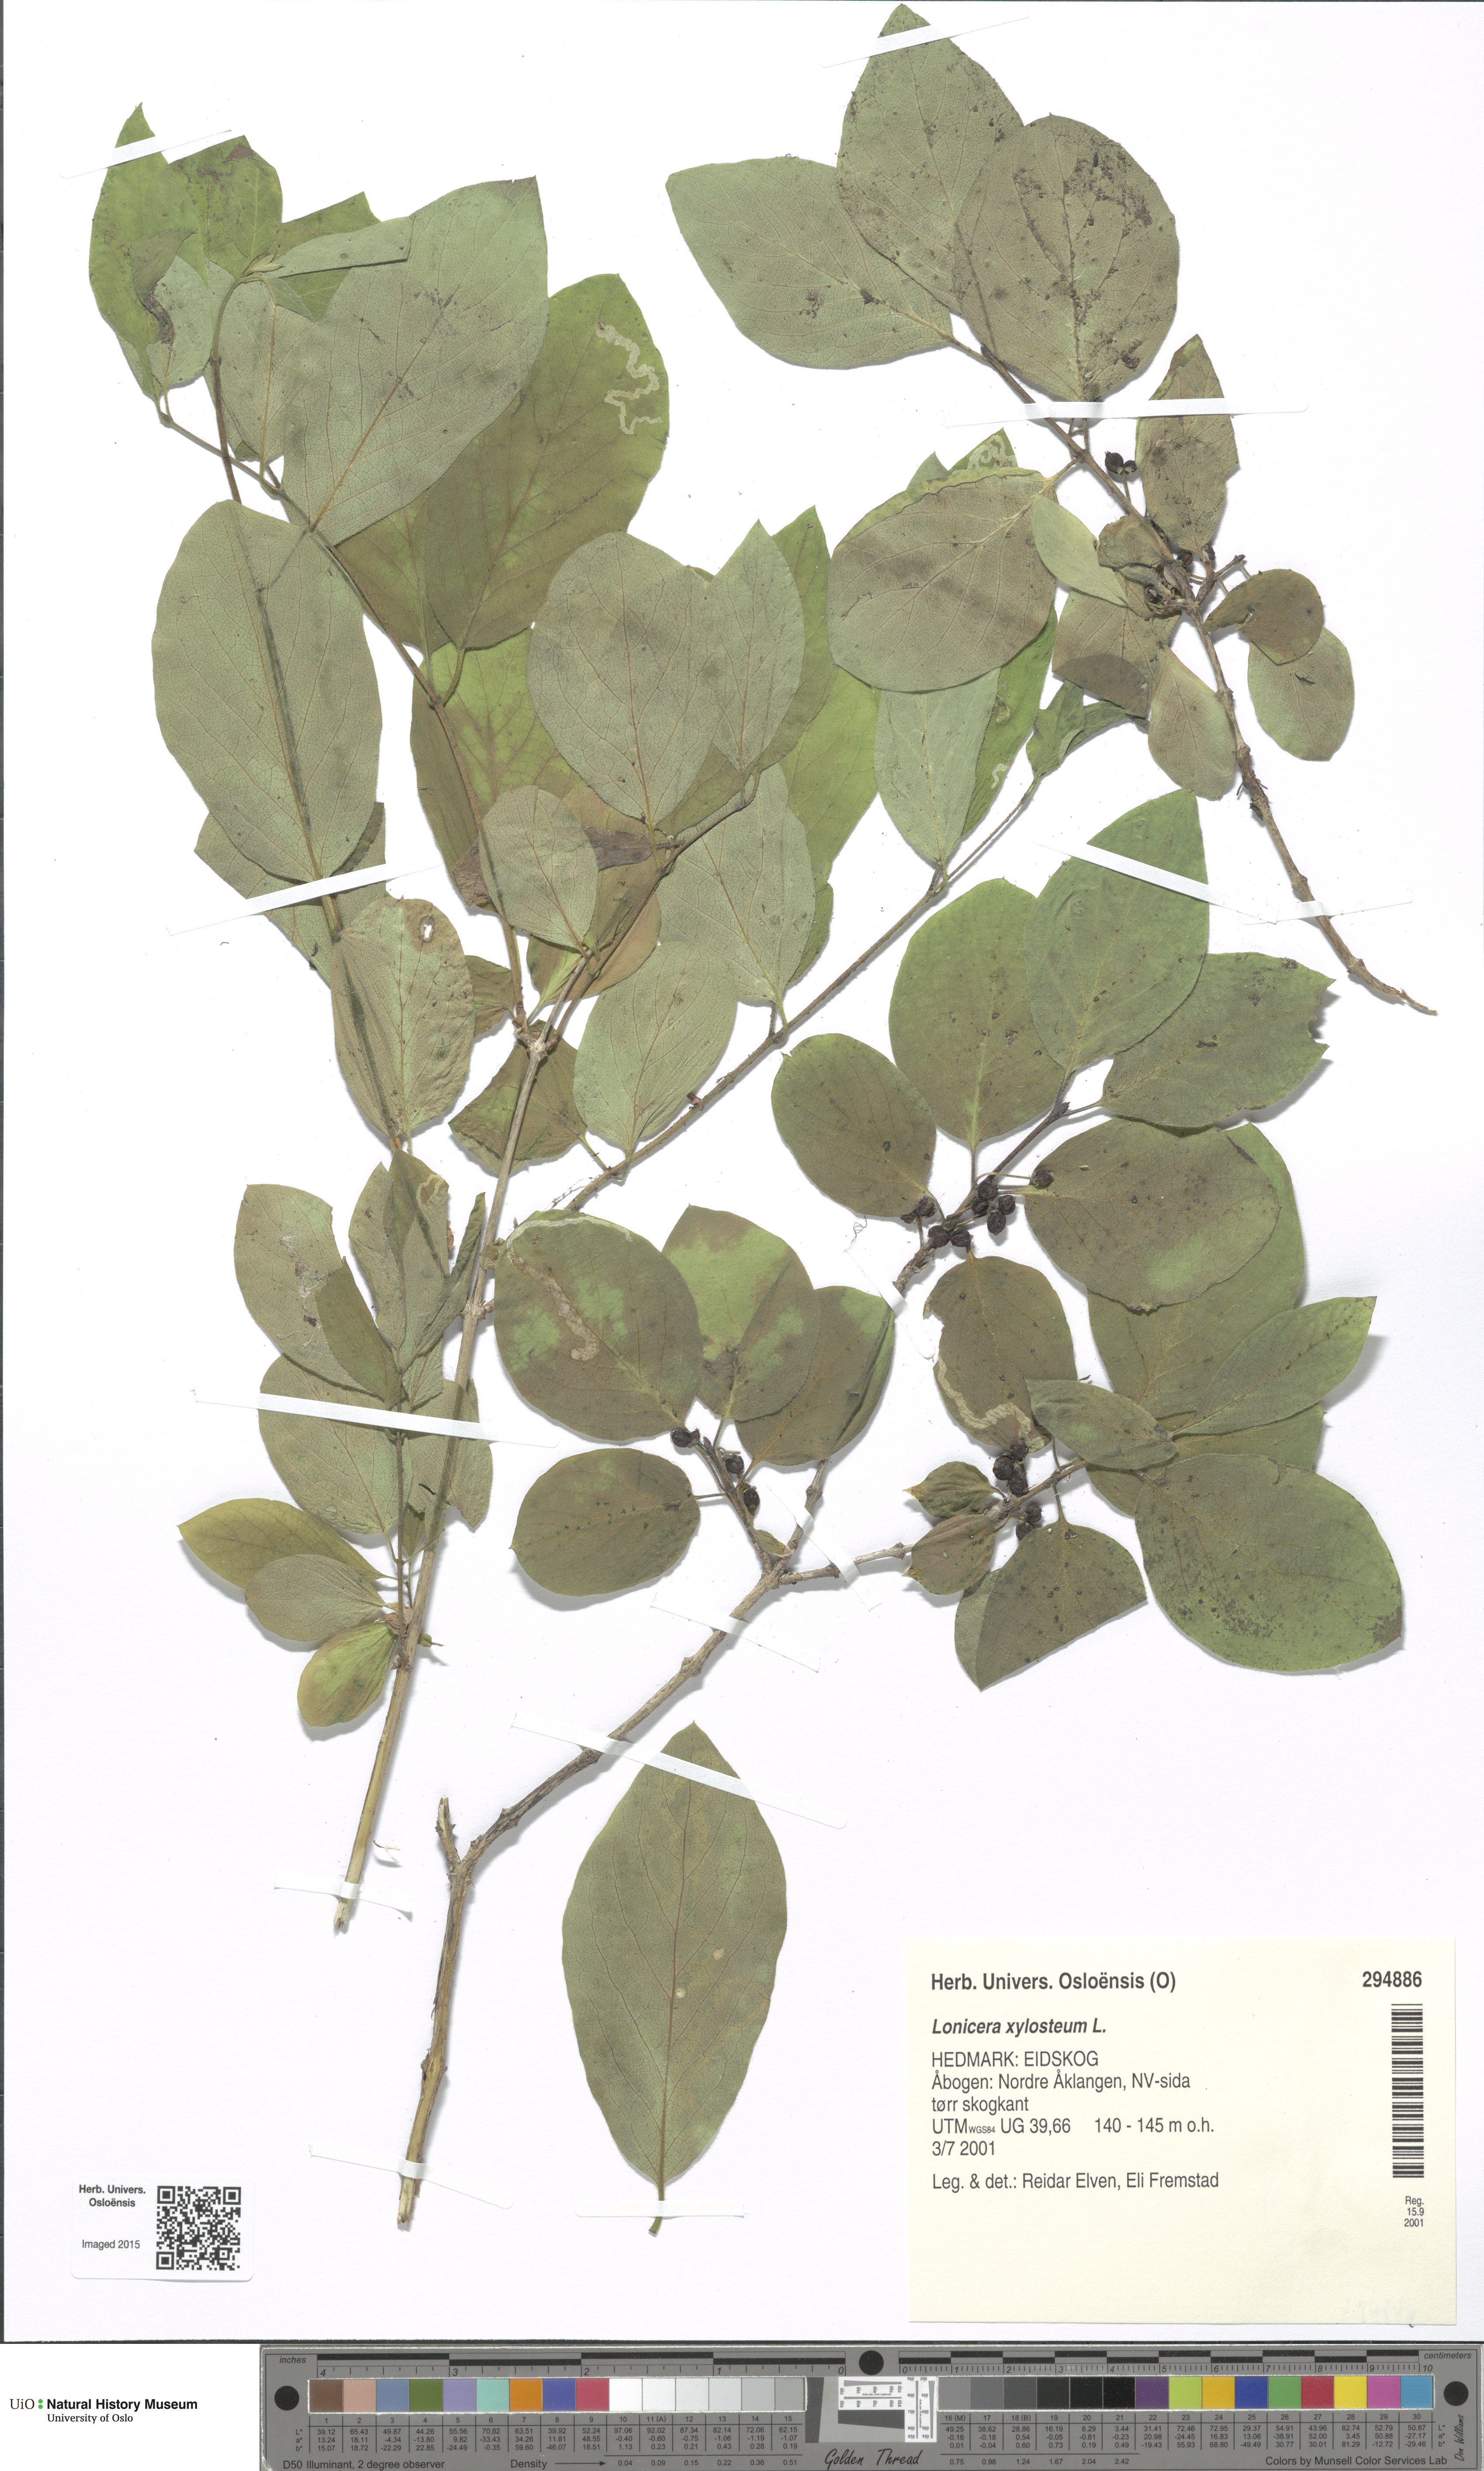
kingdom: Plantae
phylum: Tracheophyta
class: Magnoliopsida
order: Dipsacales
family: Caprifoliaceae
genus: Lonicera
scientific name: Lonicera xylosteum
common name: Fly honeysuckle
